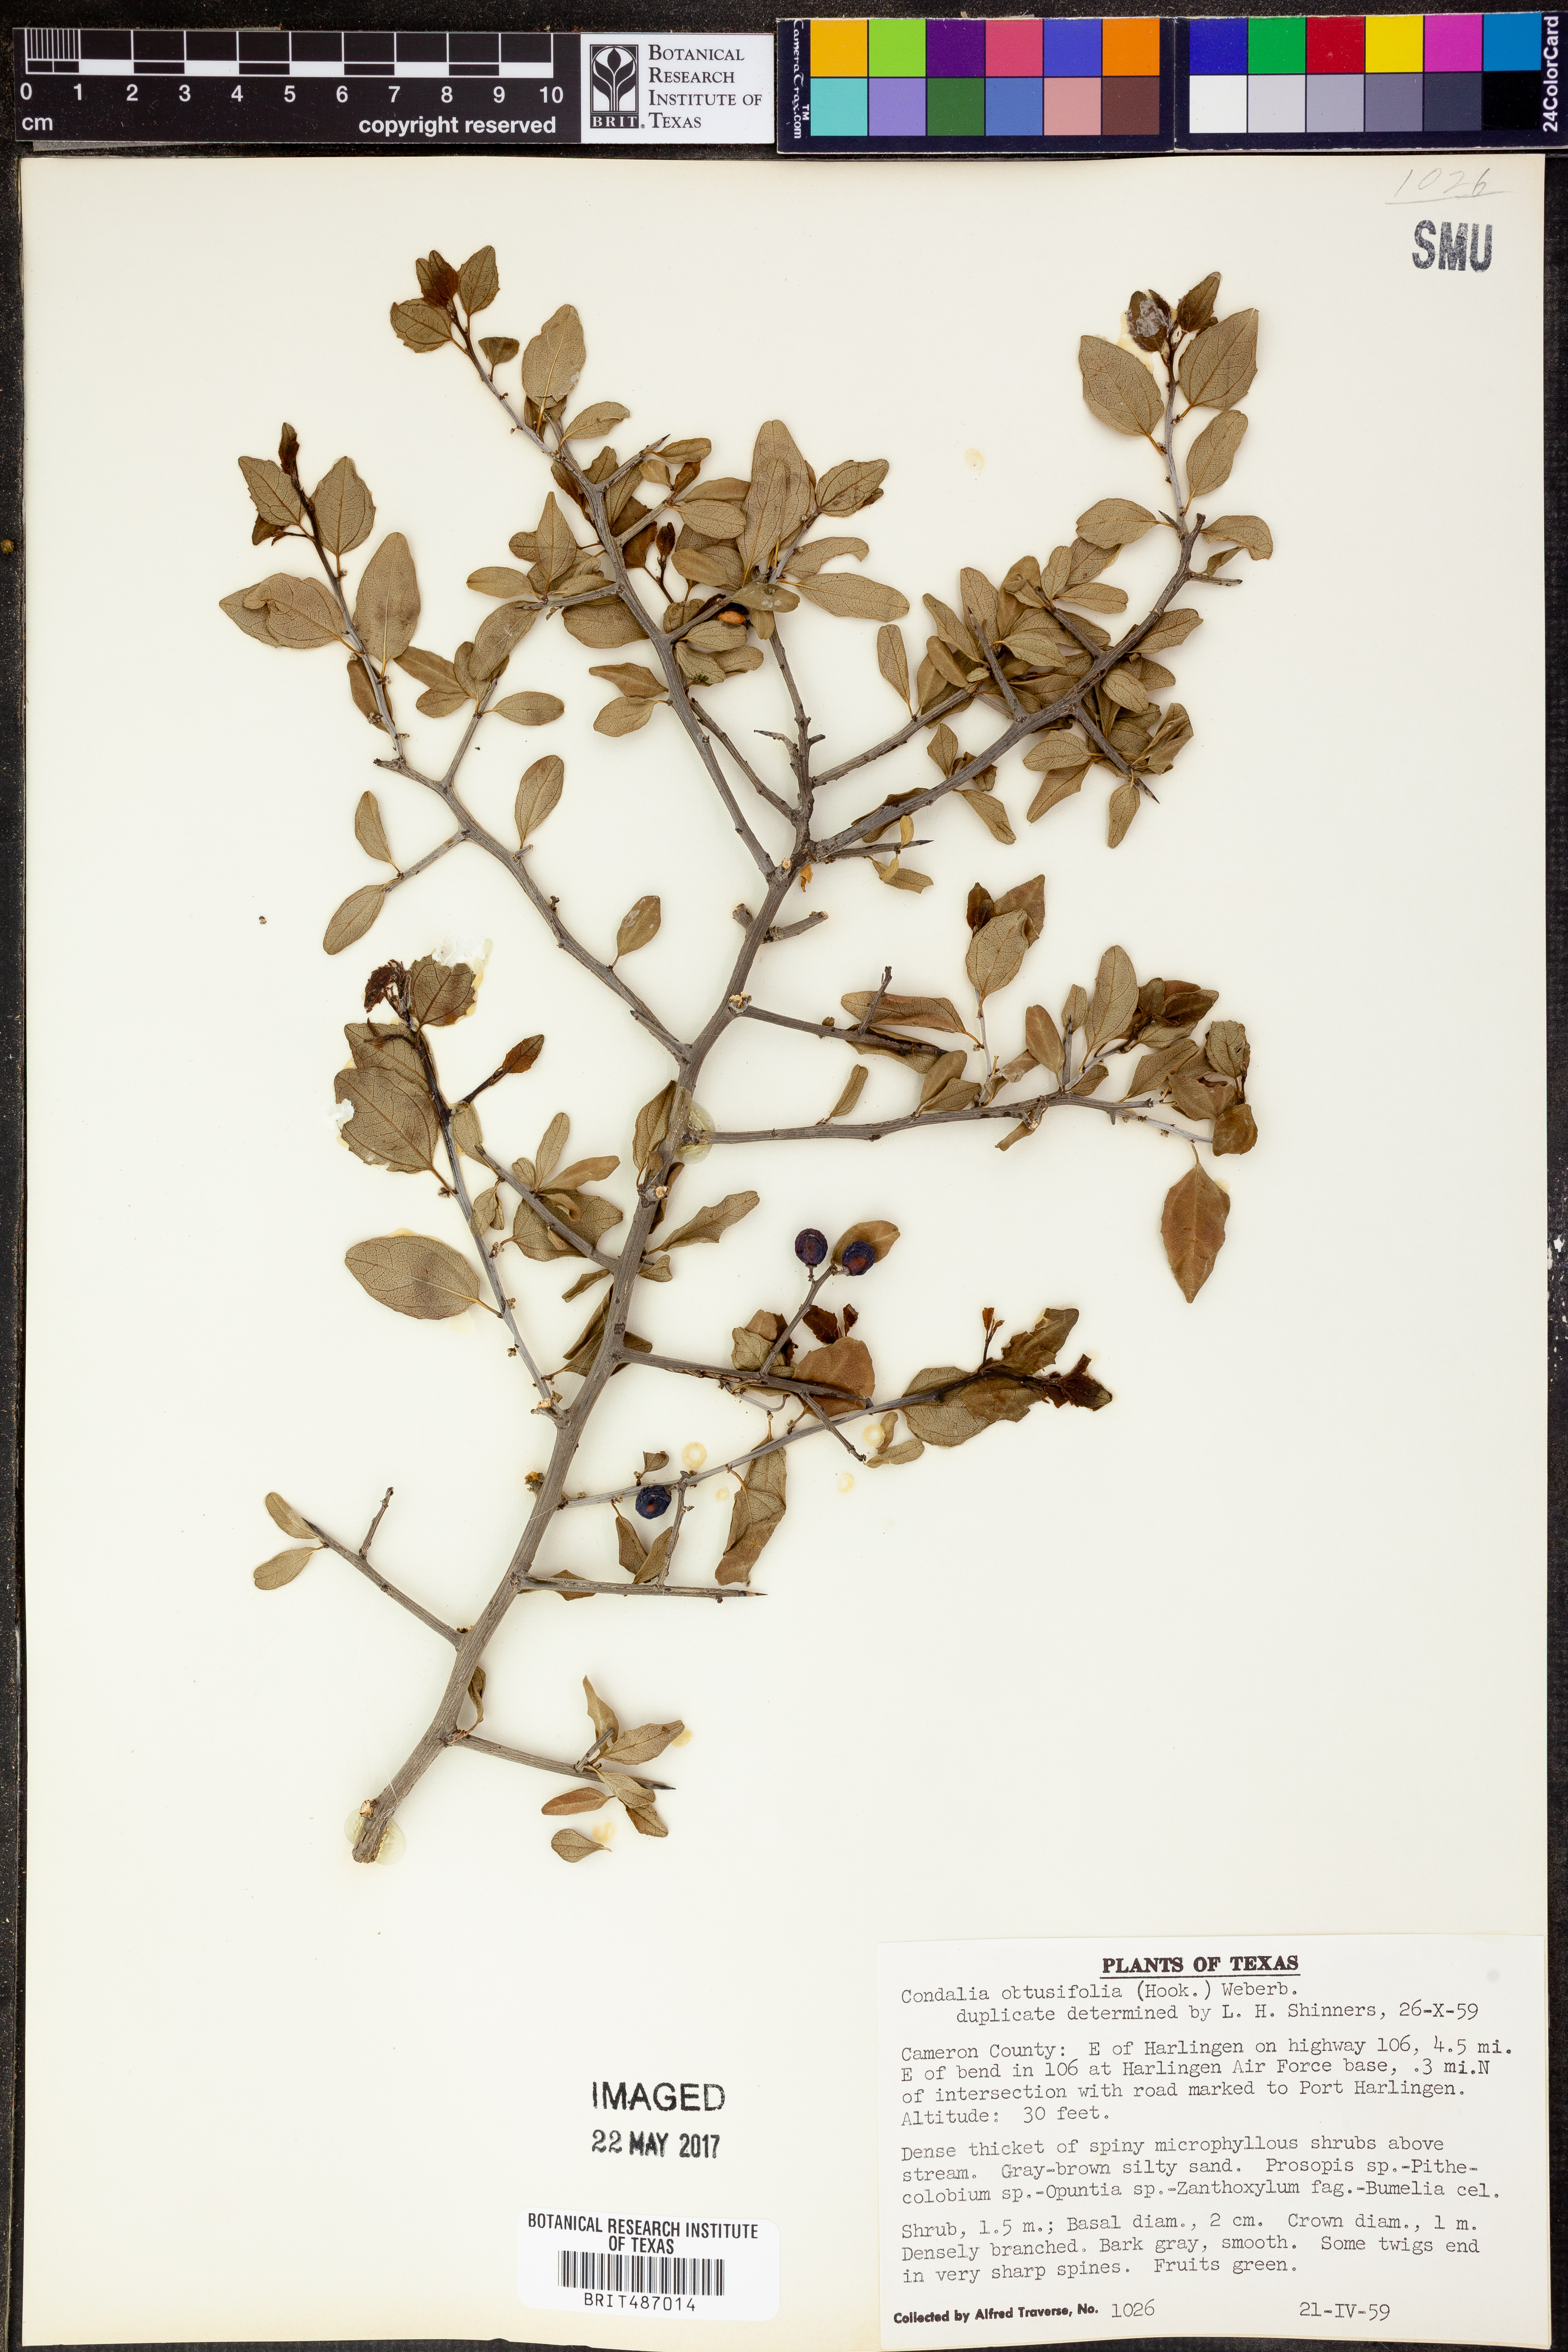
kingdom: Plantae
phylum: Tracheophyta
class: Magnoliopsida
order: Rosales
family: Rhamnaceae
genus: Sarcomphalus
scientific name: Sarcomphalus obtusifolius
